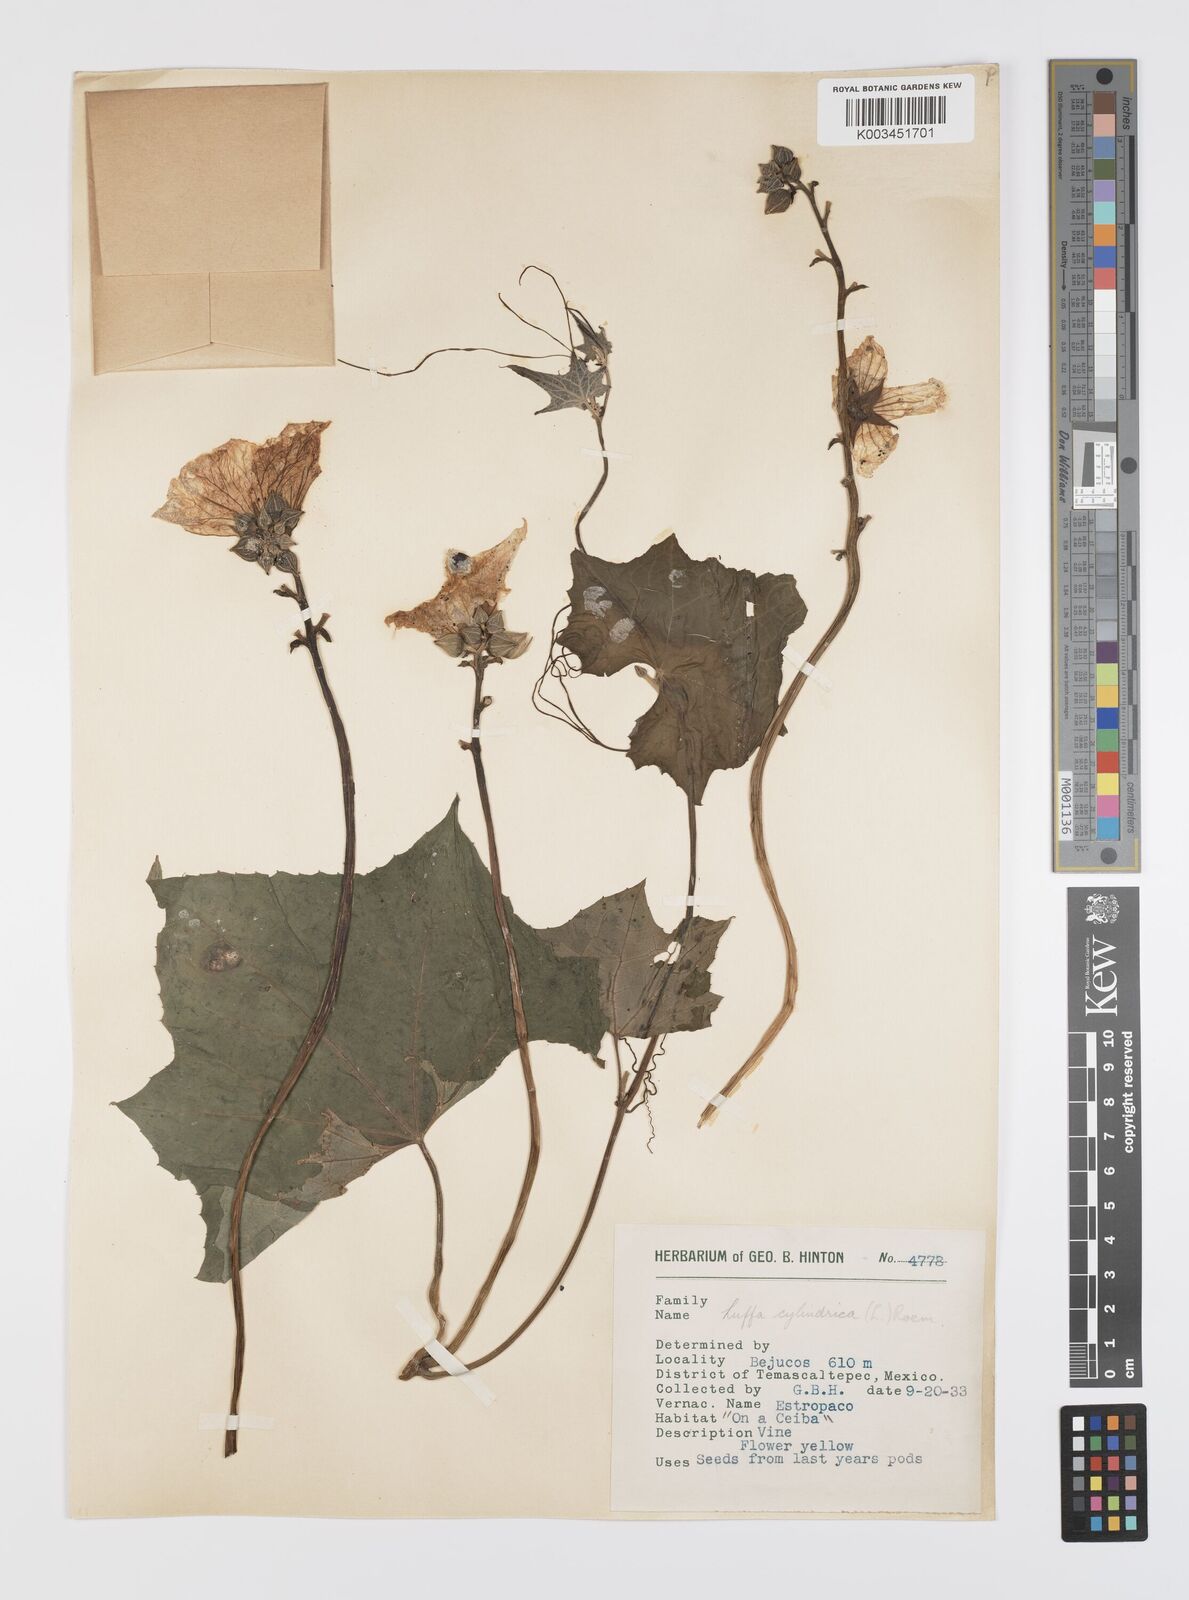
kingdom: Plantae
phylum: Tracheophyta
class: Magnoliopsida
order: Cucurbitales
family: Cucurbitaceae
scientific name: Cucurbitaceae
